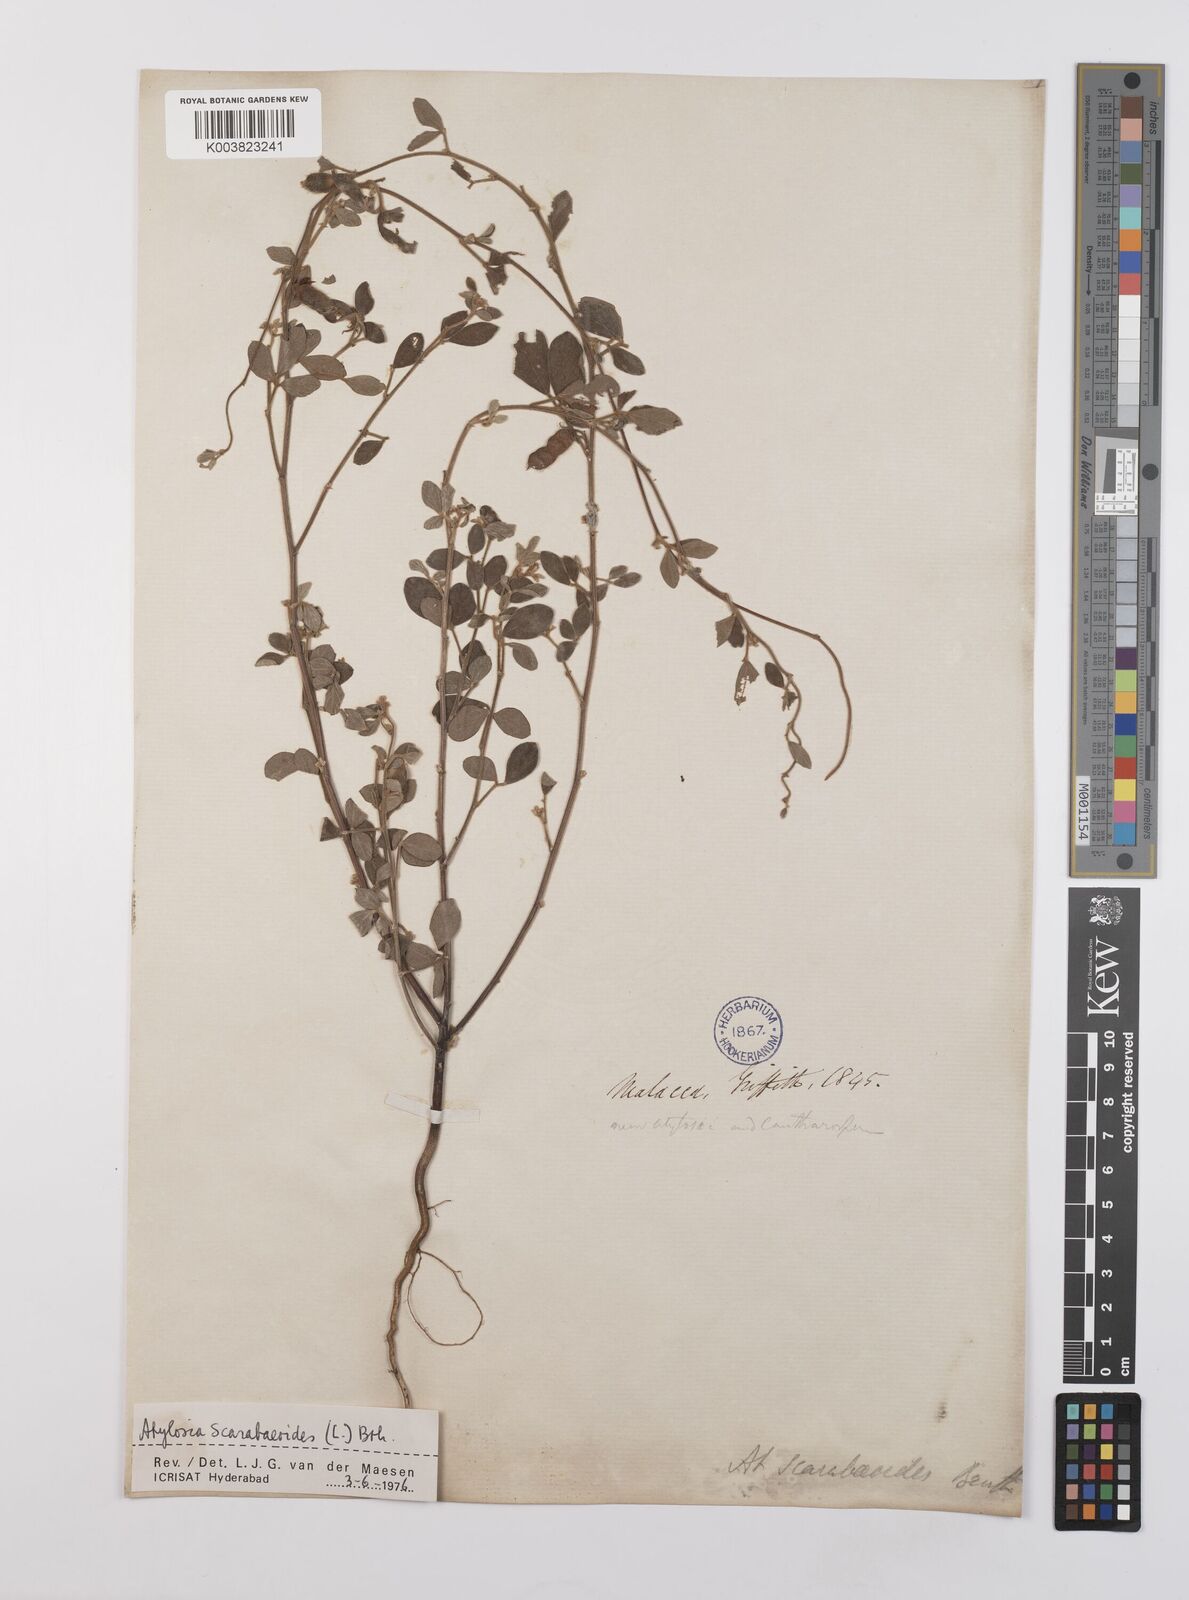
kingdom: Plantae
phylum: Tracheophyta
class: Magnoliopsida
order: Fabales
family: Fabaceae
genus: Cajanus
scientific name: Cajanus scarabaeoides
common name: Showy pigeonpea
